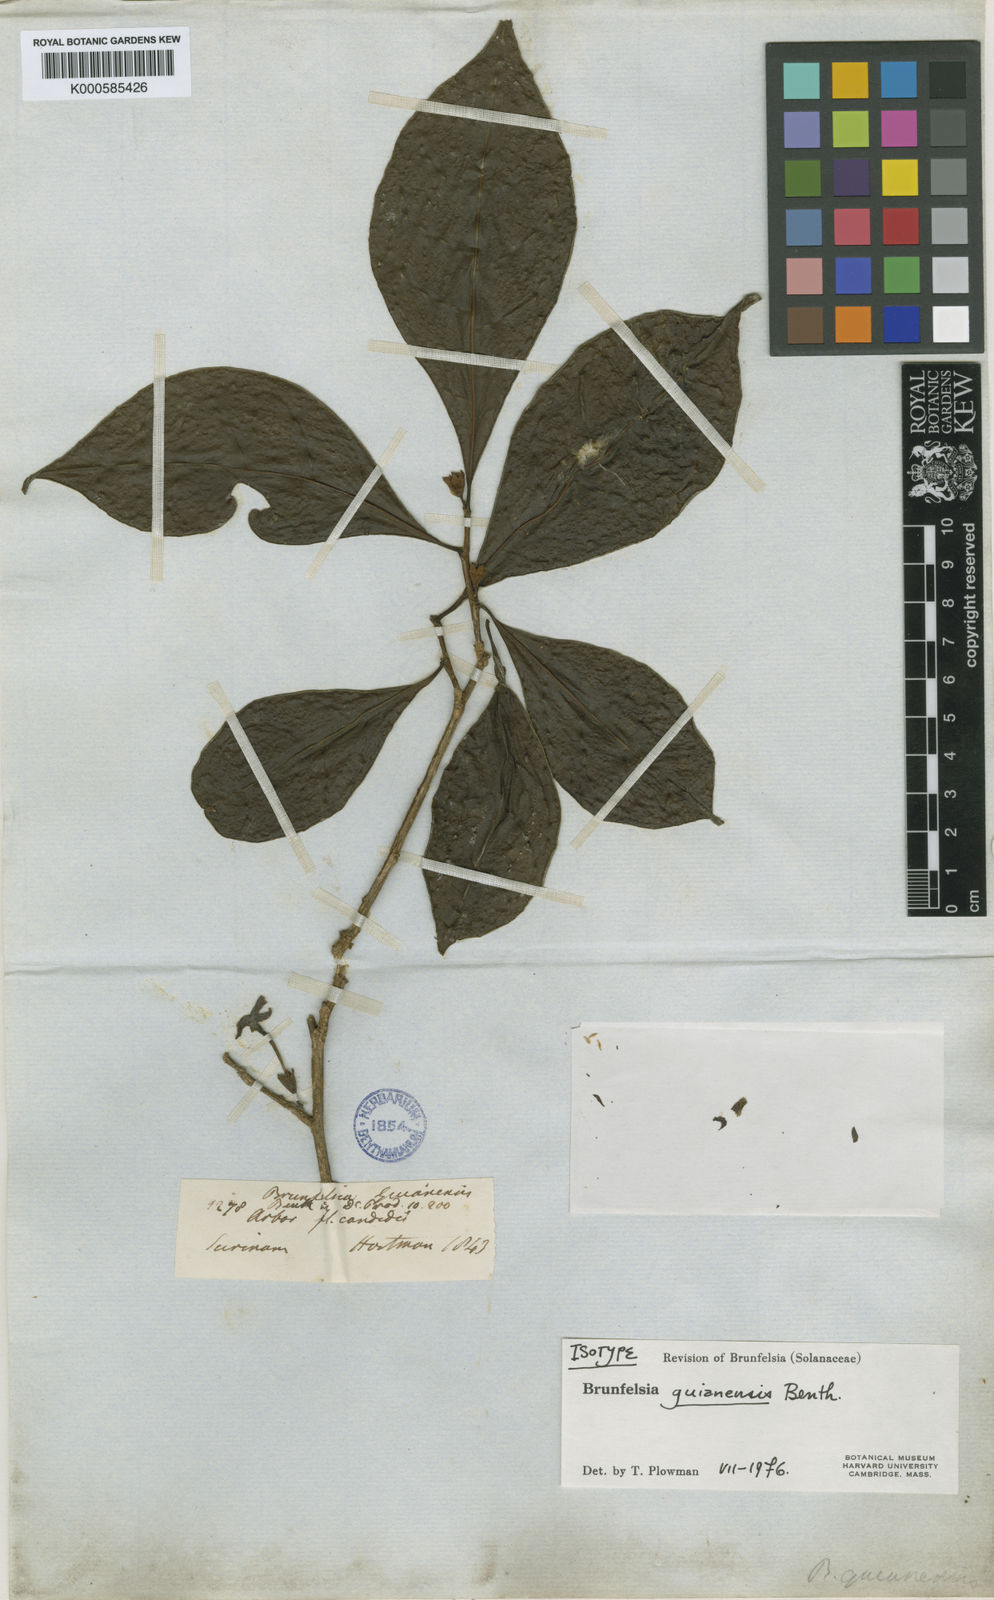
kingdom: Plantae
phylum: Tracheophyta
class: Magnoliopsida
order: Solanales
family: Solanaceae
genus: Brunfelsia
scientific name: Brunfelsia guianensis
